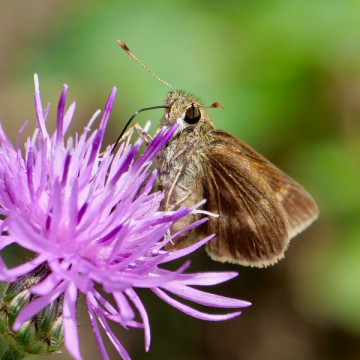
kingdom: Animalia
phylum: Arthropoda
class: Insecta
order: Lepidoptera
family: Hesperiidae
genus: Polites
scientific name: Polites egeremet
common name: Northern Broken-Dash
